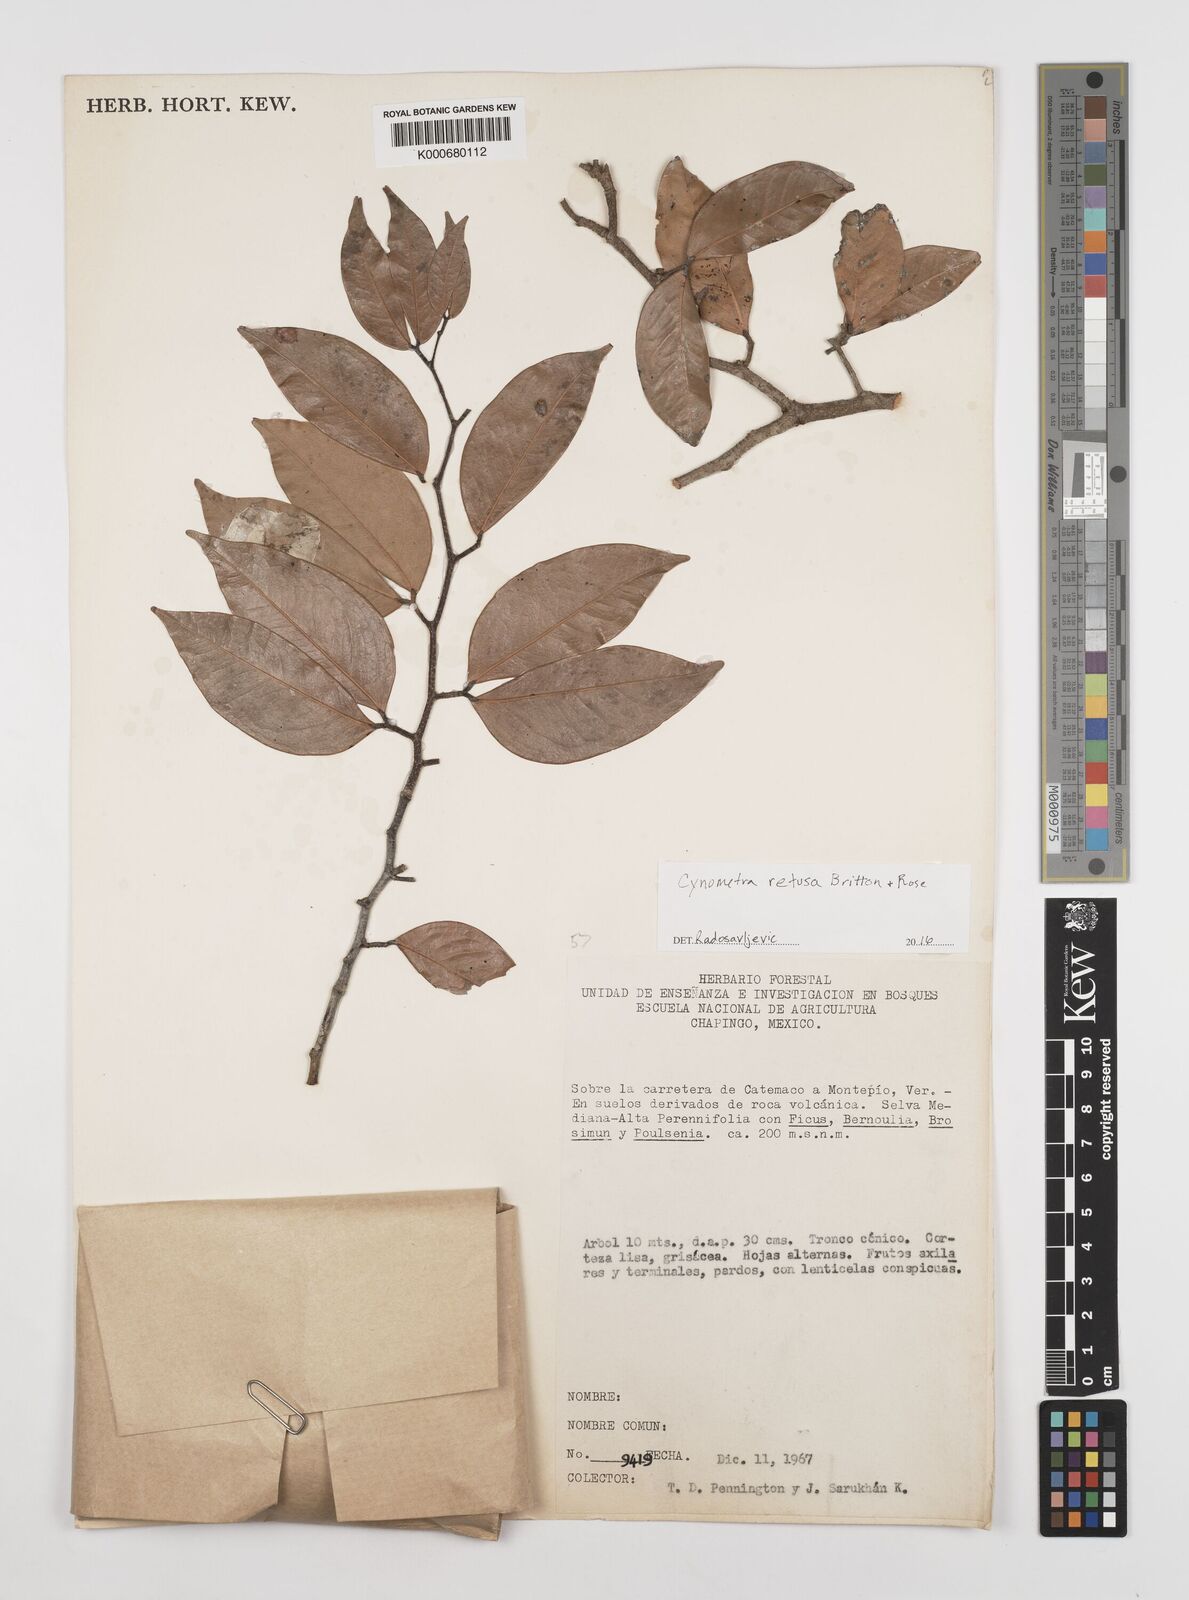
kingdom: Plantae
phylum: Tracheophyta
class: Magnoliopsida
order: Fabales
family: Fabaceae
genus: Cynometra
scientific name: Cynometra retusa
